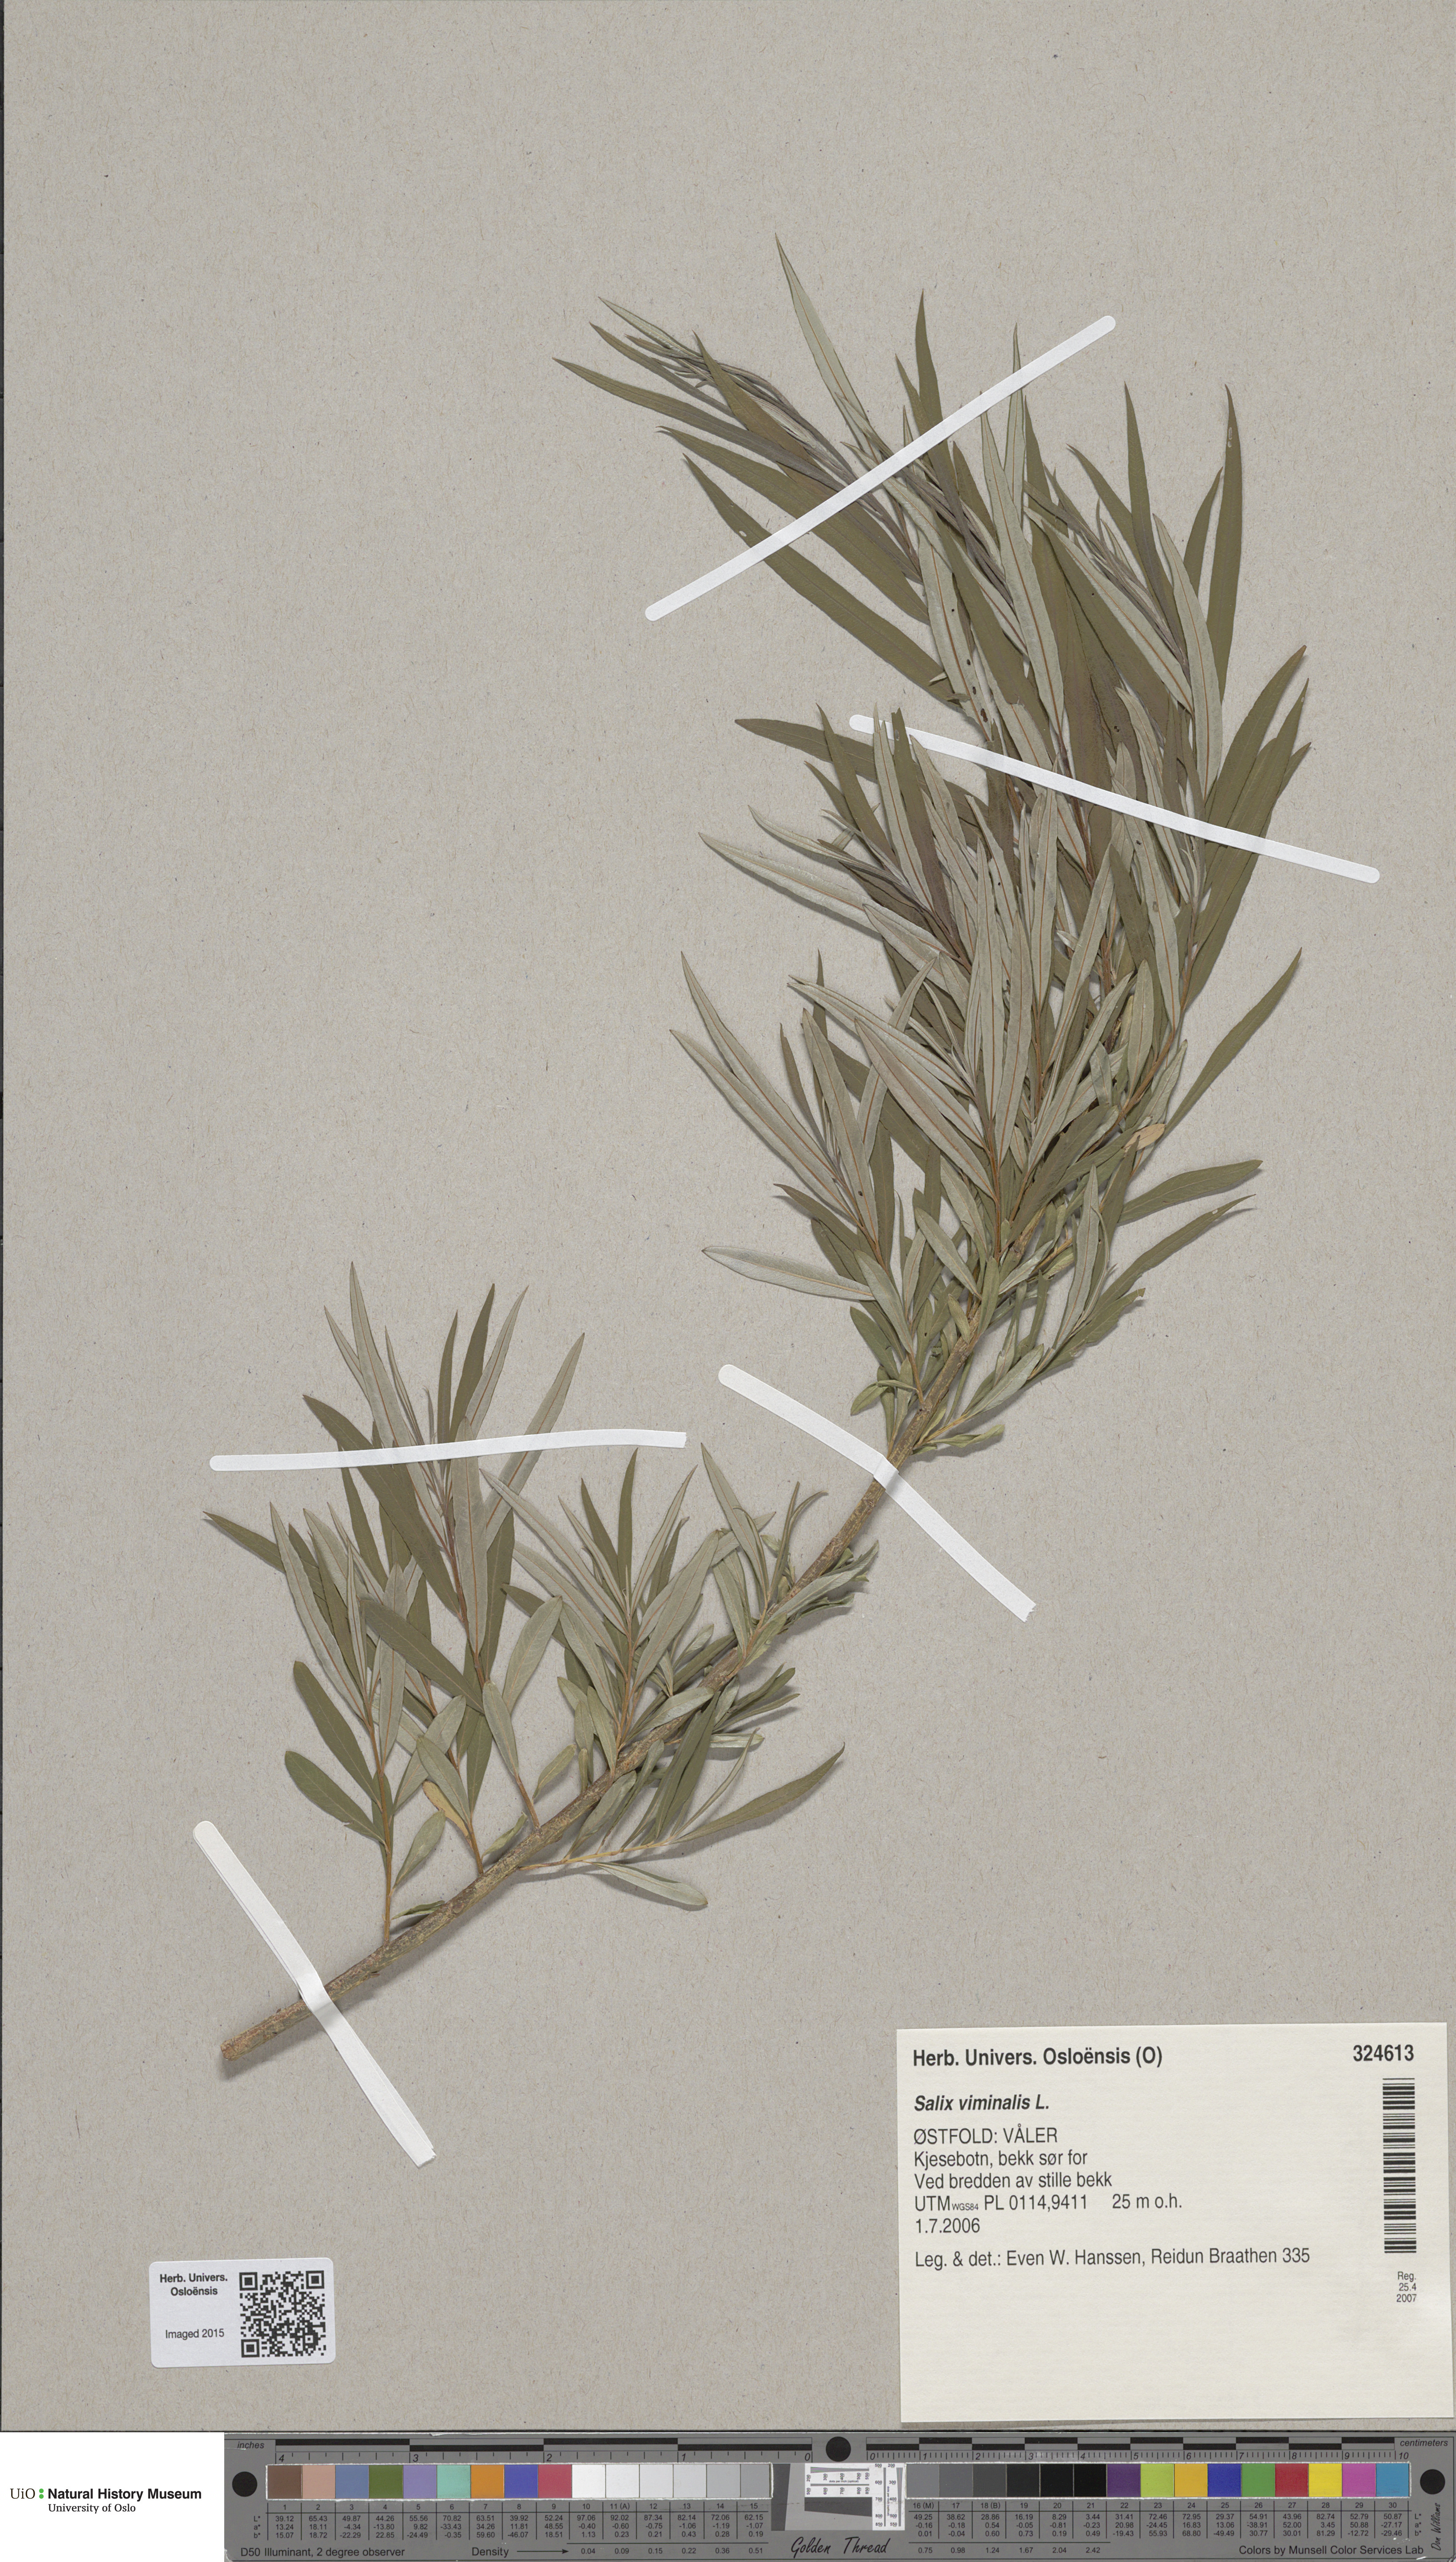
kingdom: Plantae
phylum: Tracheophyta
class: Magnoliopsida
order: Malpighiales
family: Salicaceae
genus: Salix
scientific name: Salix viminalis
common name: Osier
